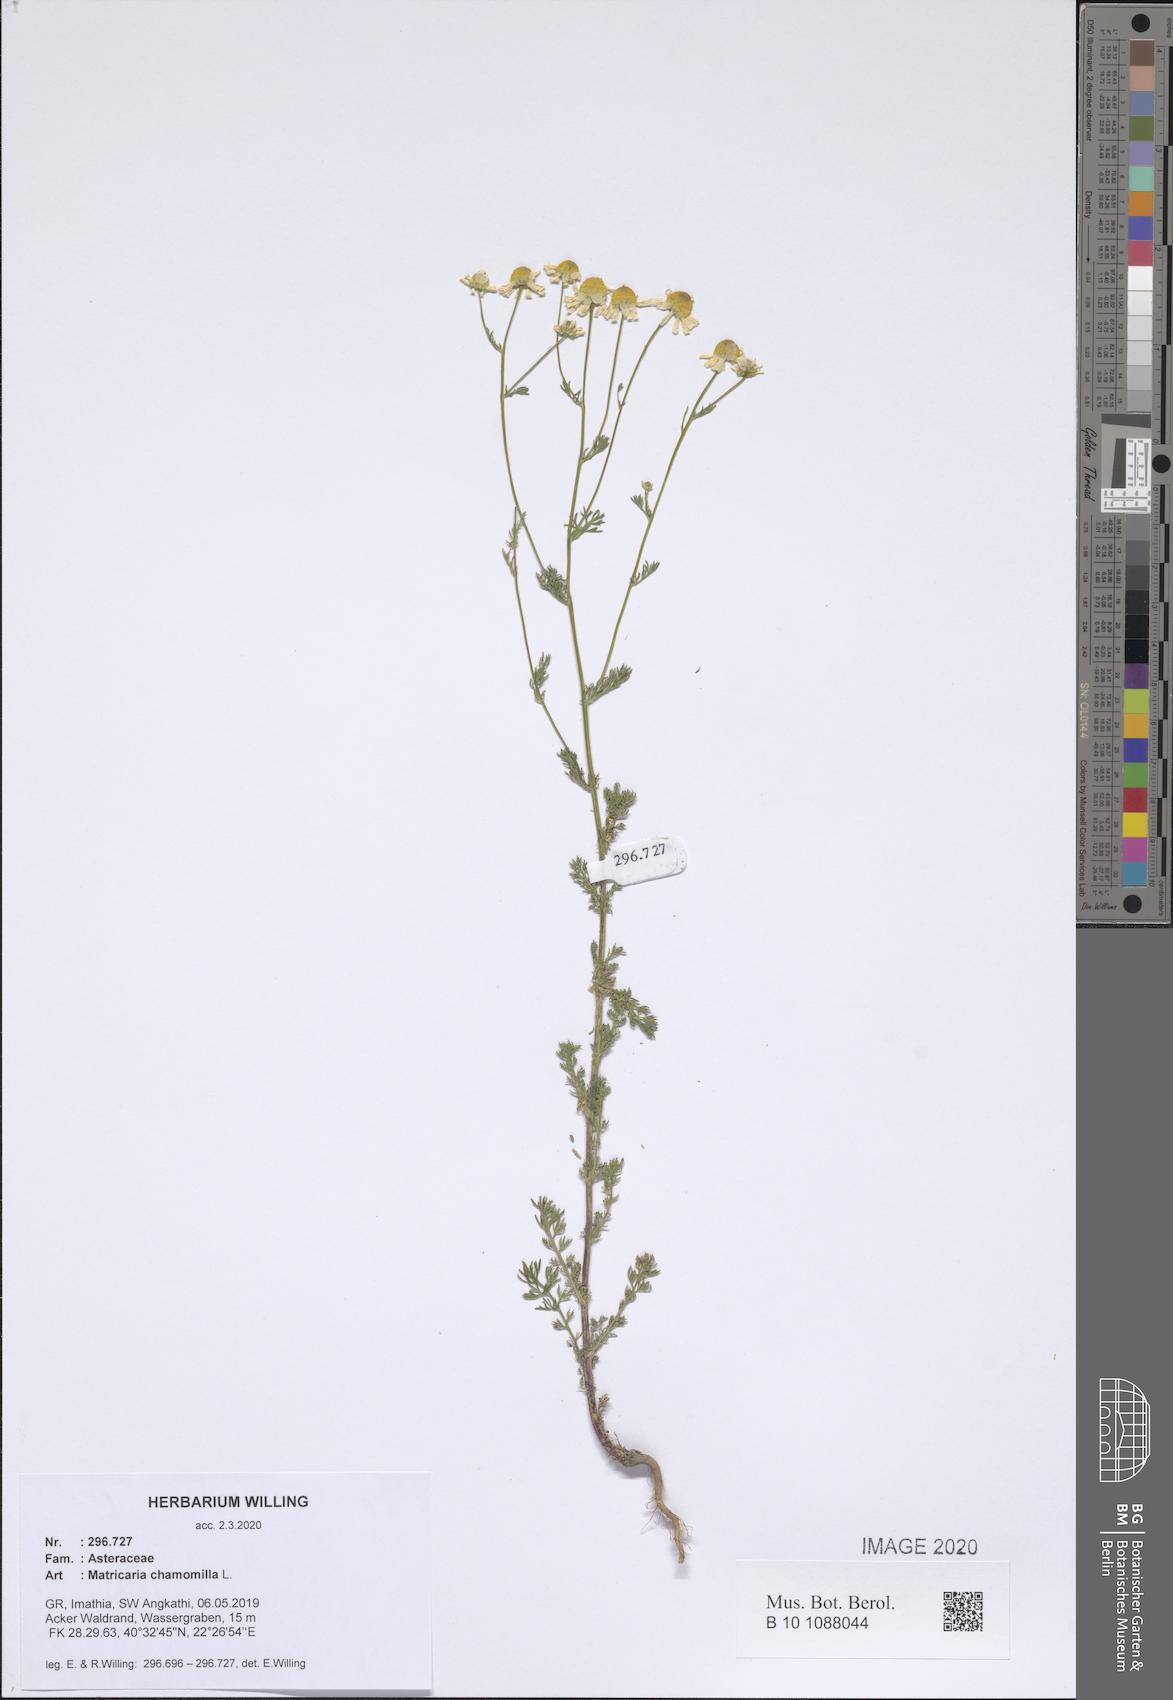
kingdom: Plantae
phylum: Tracheophyta
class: Magnoliopsida
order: Asterales
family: Asteraceae
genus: Matricaria
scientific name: Matricaria chamomilla
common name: Scented mayweed
